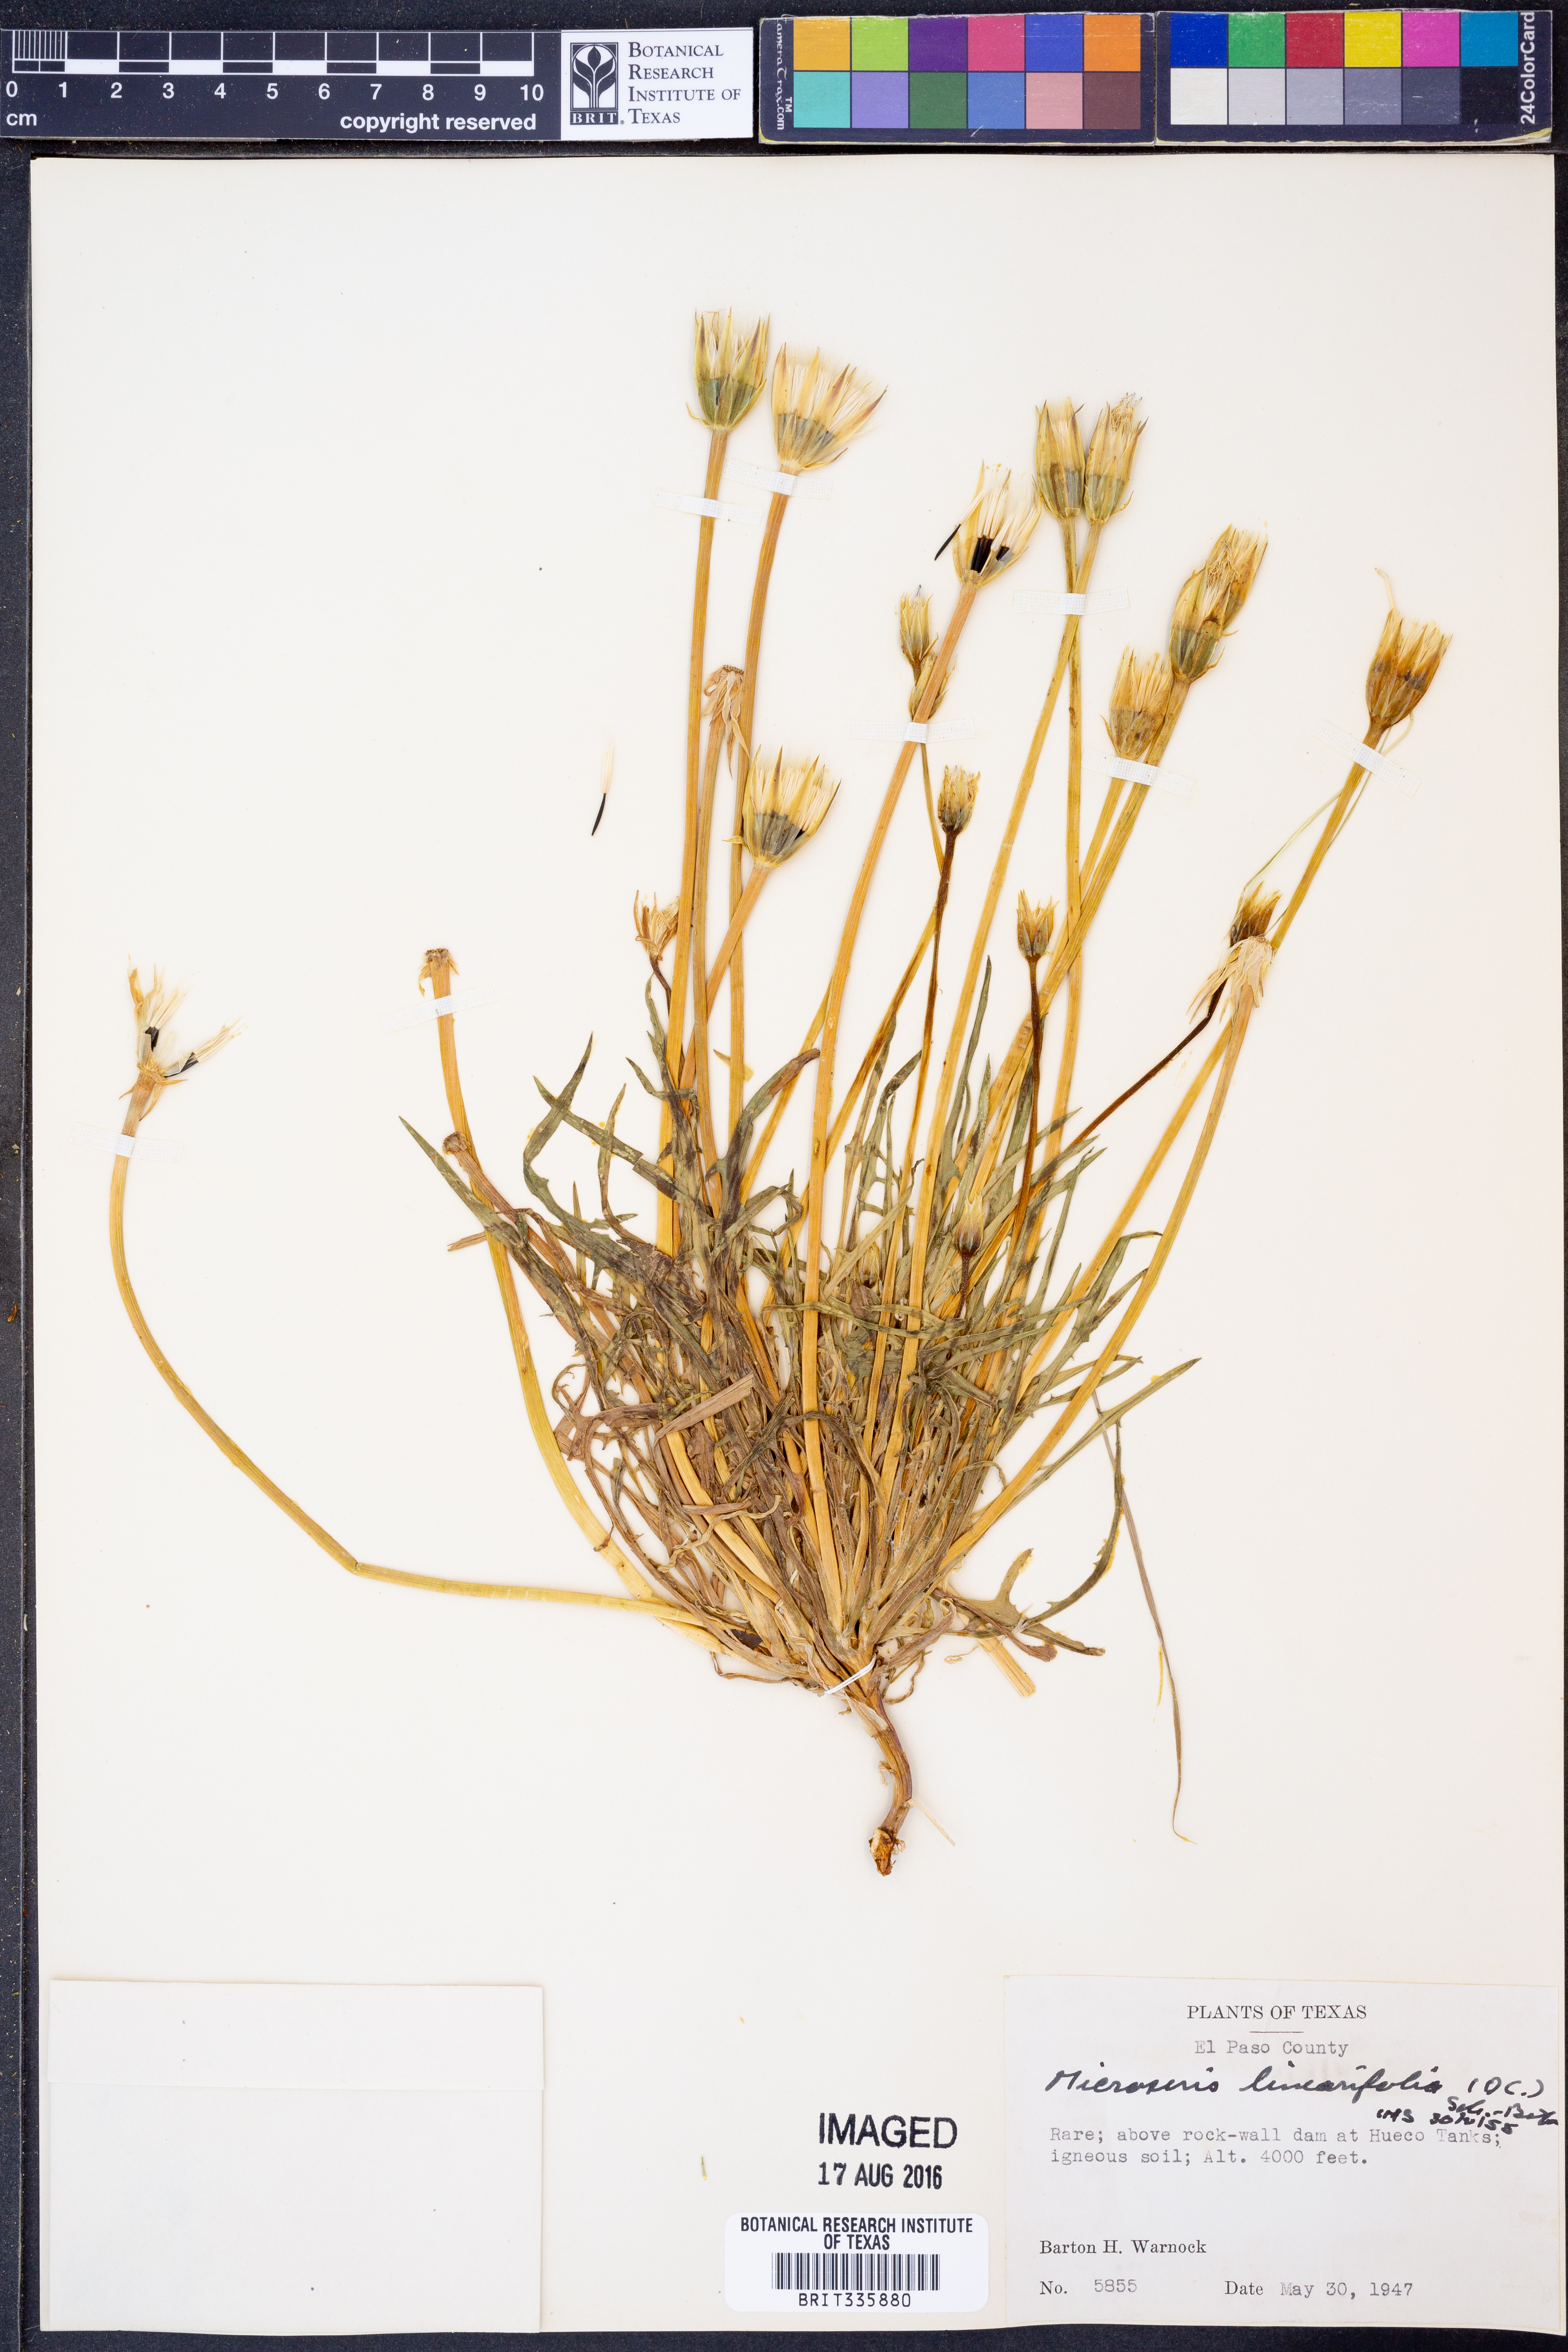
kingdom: Plantae
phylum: Tracheophyta
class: Magnoliopsida
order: Asterales
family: Asteraceae
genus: Microseris
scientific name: Microseris lindleyi
